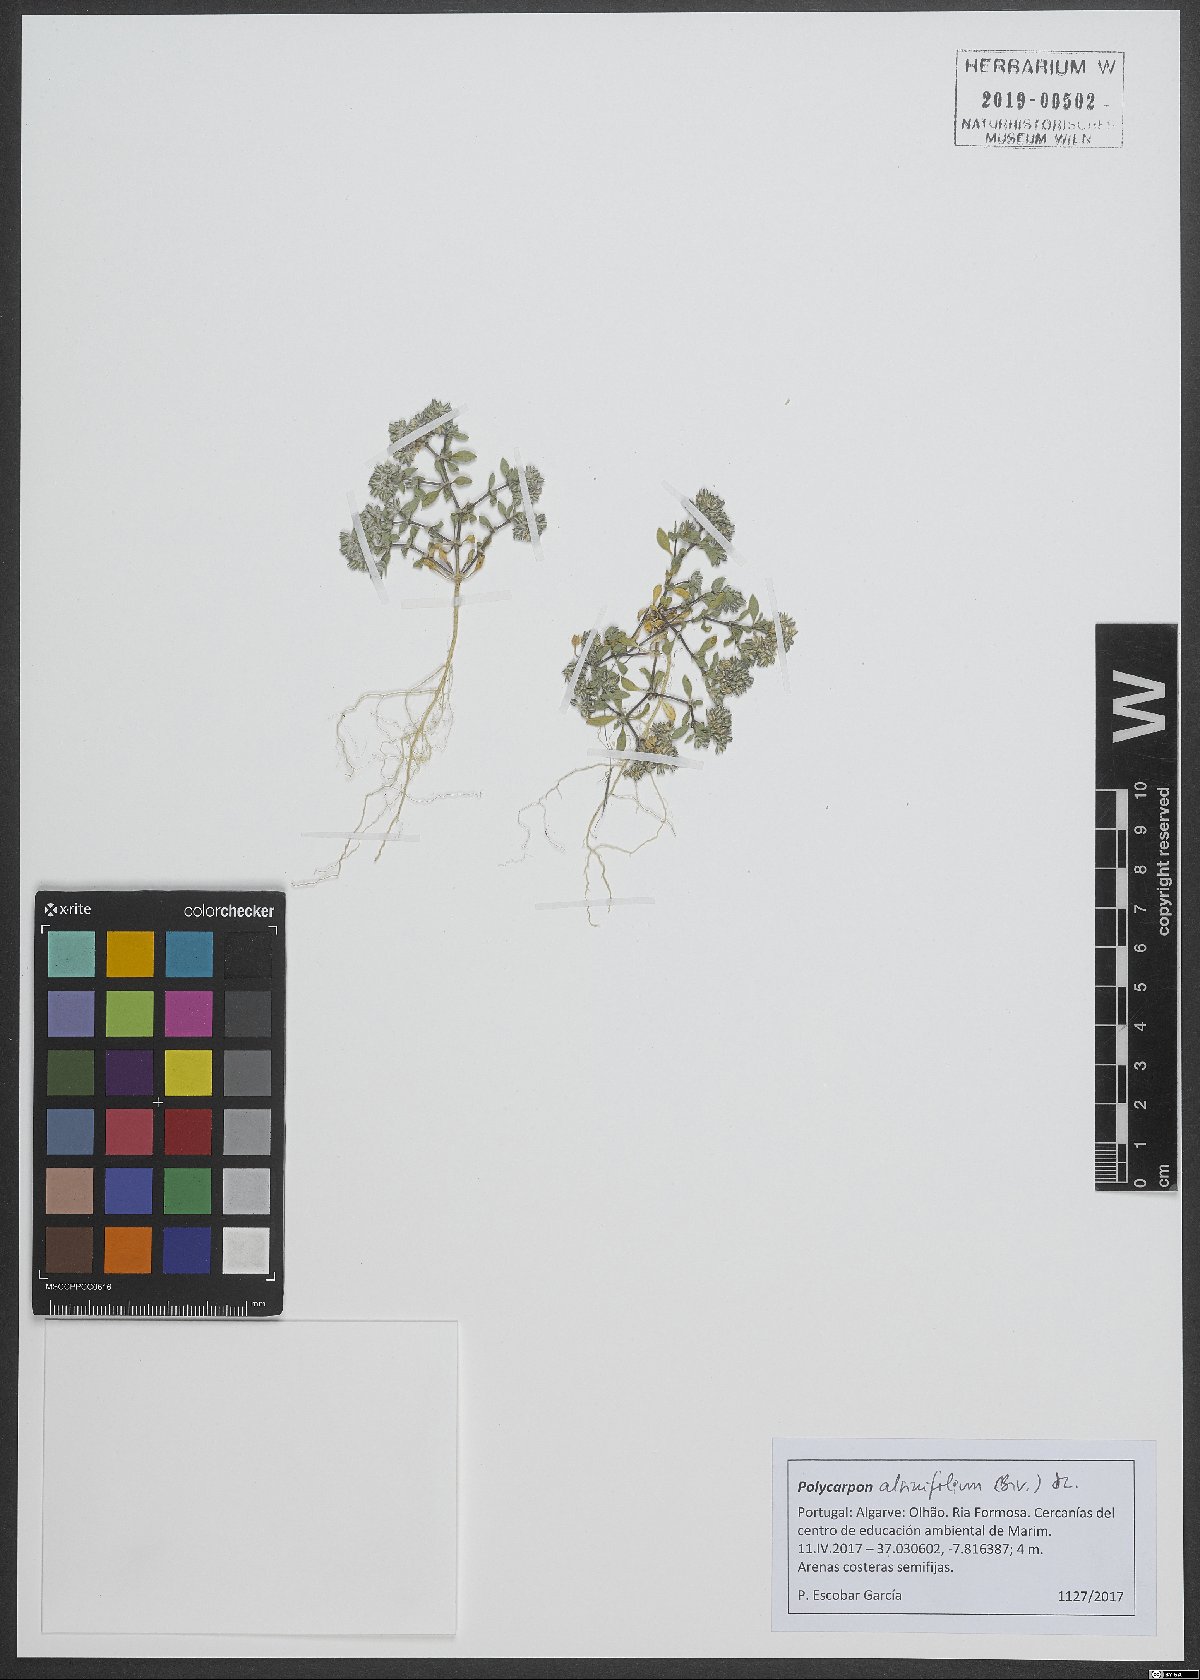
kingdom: Plantae
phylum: Tracheophyta
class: Magnoliopsida
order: Caryophyllales
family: Caryophyllaceae
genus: Polycarpon
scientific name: Polycarpon alsinifolium
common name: Fourleaf manyseed
